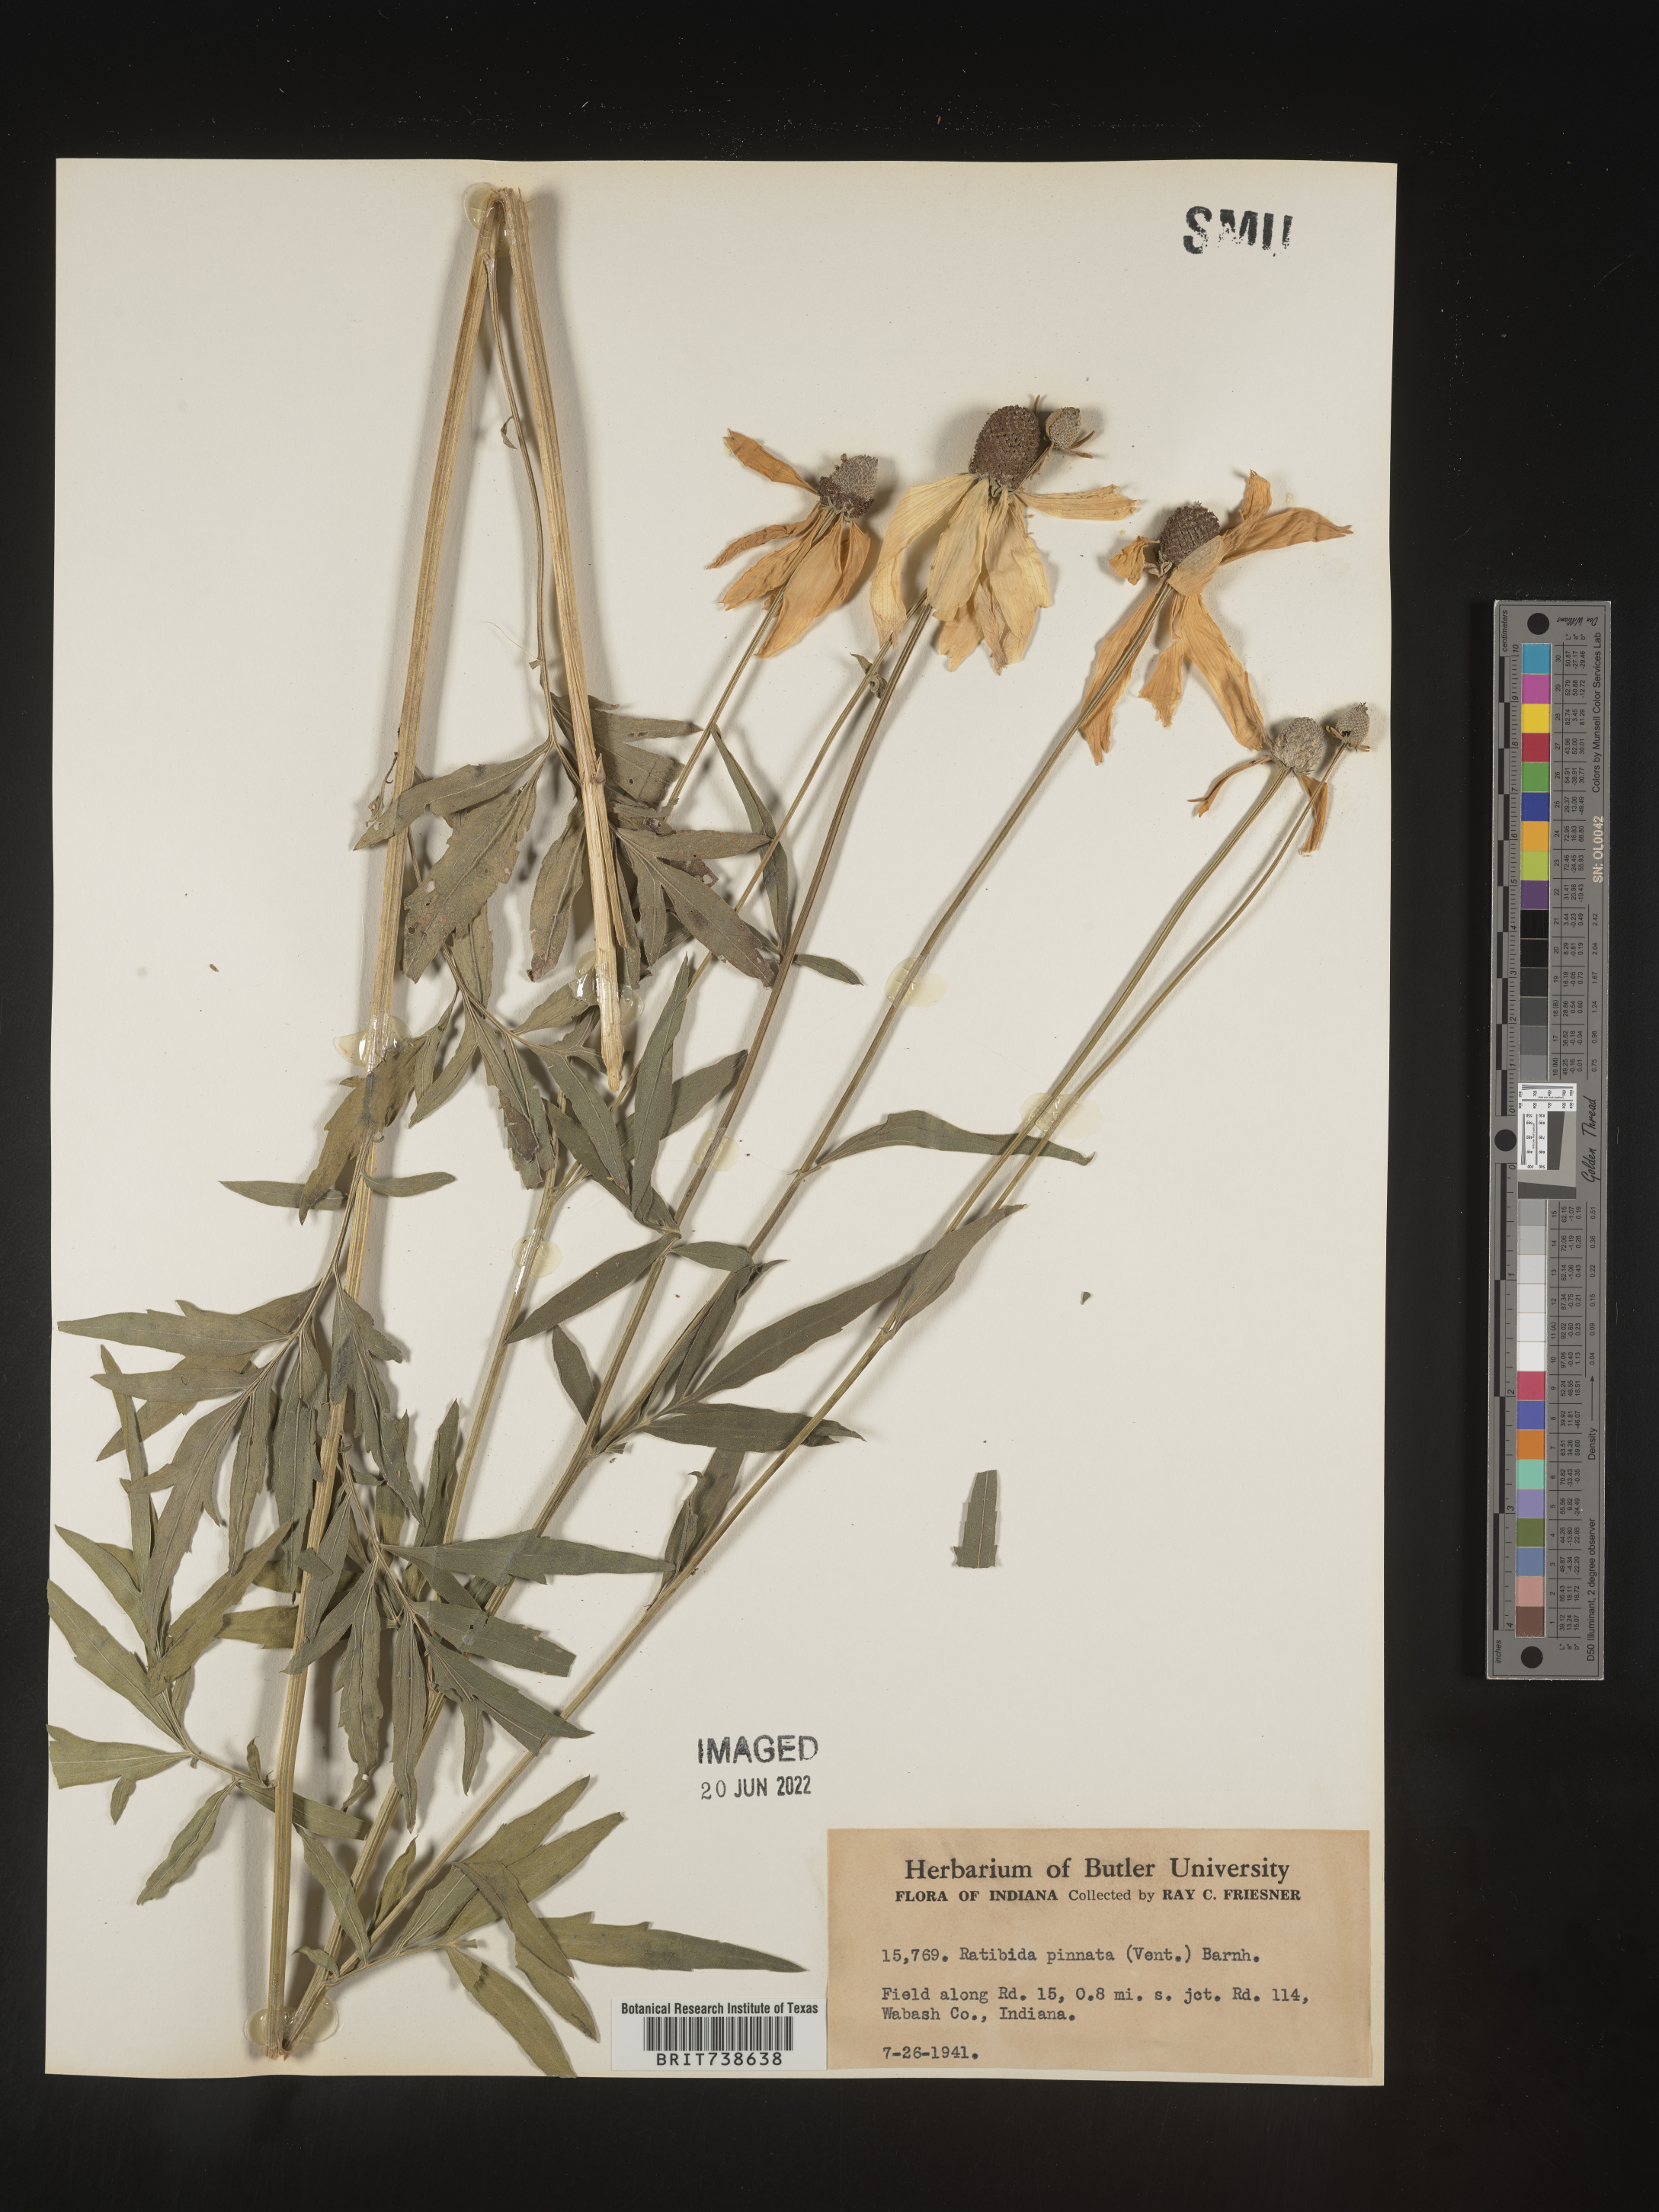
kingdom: Plantae
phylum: Tracheophyta
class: Magnoliopsida
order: Asterales
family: Asteraceae
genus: Ratibida
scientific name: Ratibida pinnata
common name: Drooping prairie-coneflower
